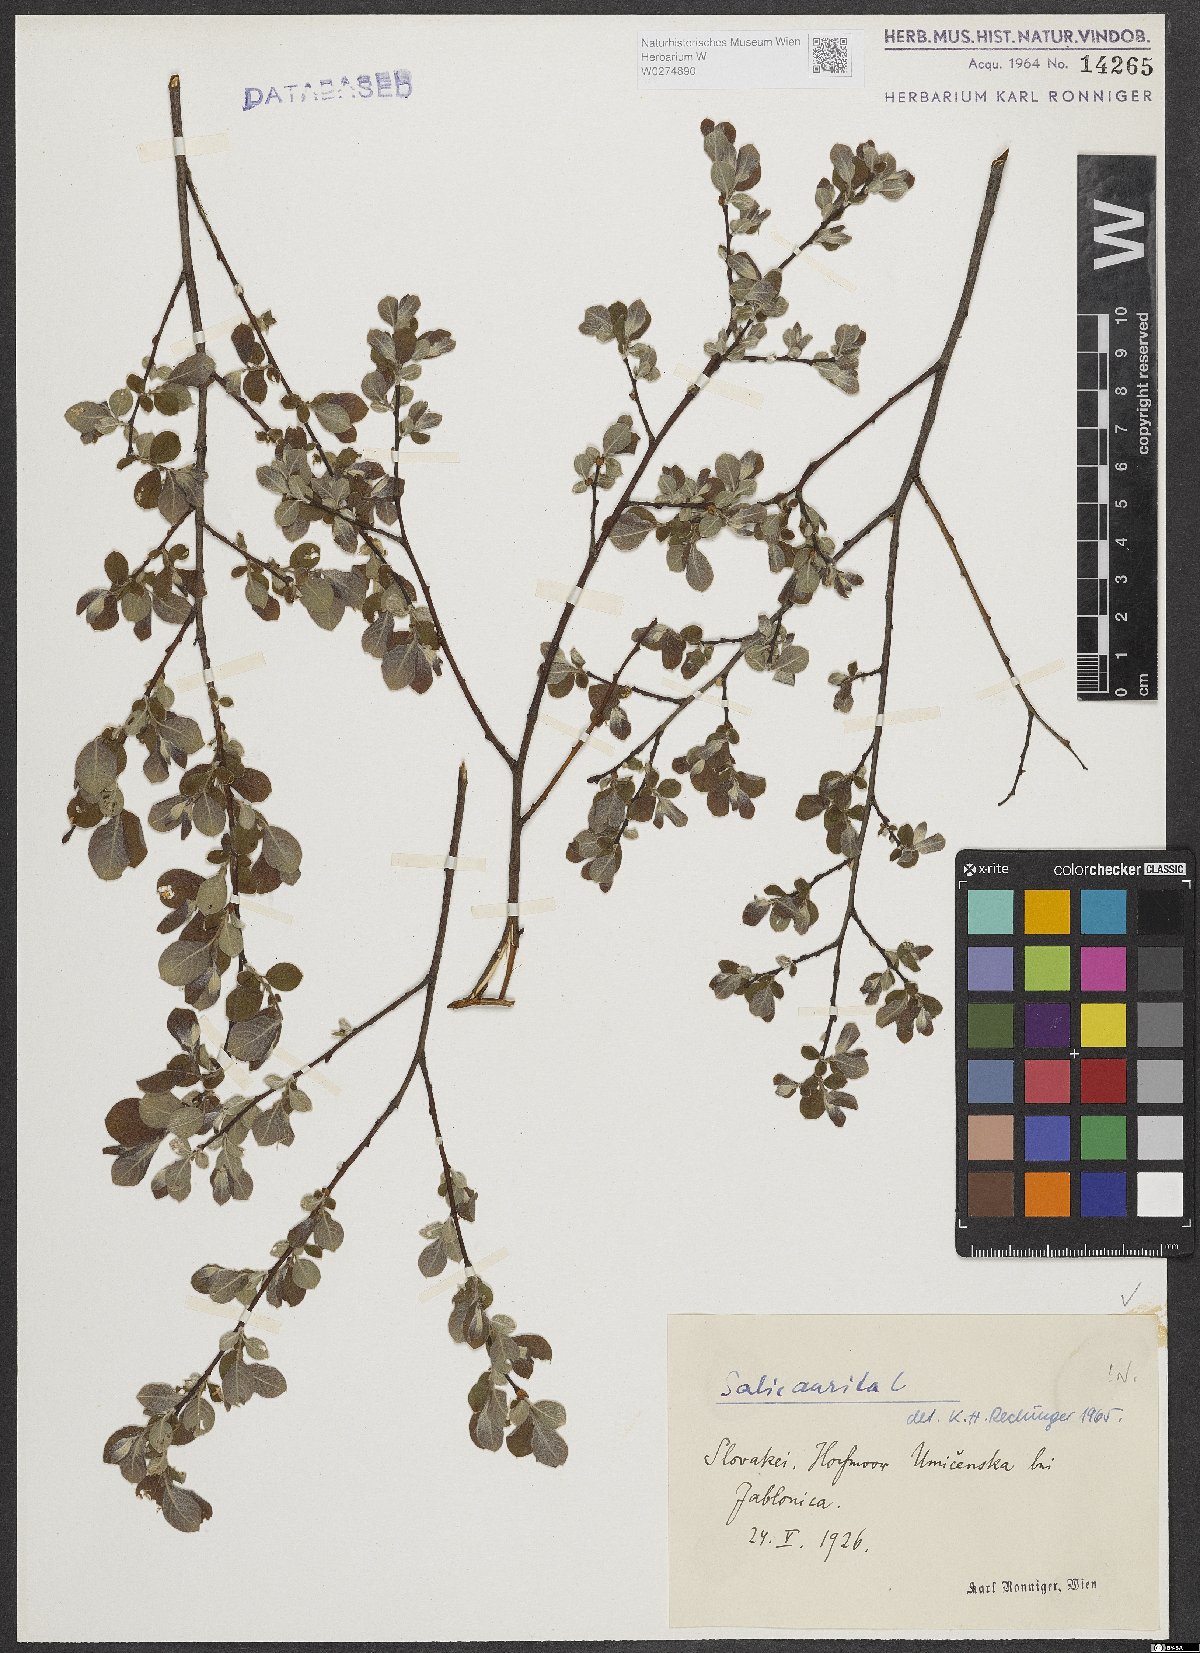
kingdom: Plantae
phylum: Tracheophyta
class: Magnoliopsida
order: Malpighiales
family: Salicaceae
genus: Salix
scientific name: Salix aurita
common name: Eared willow
